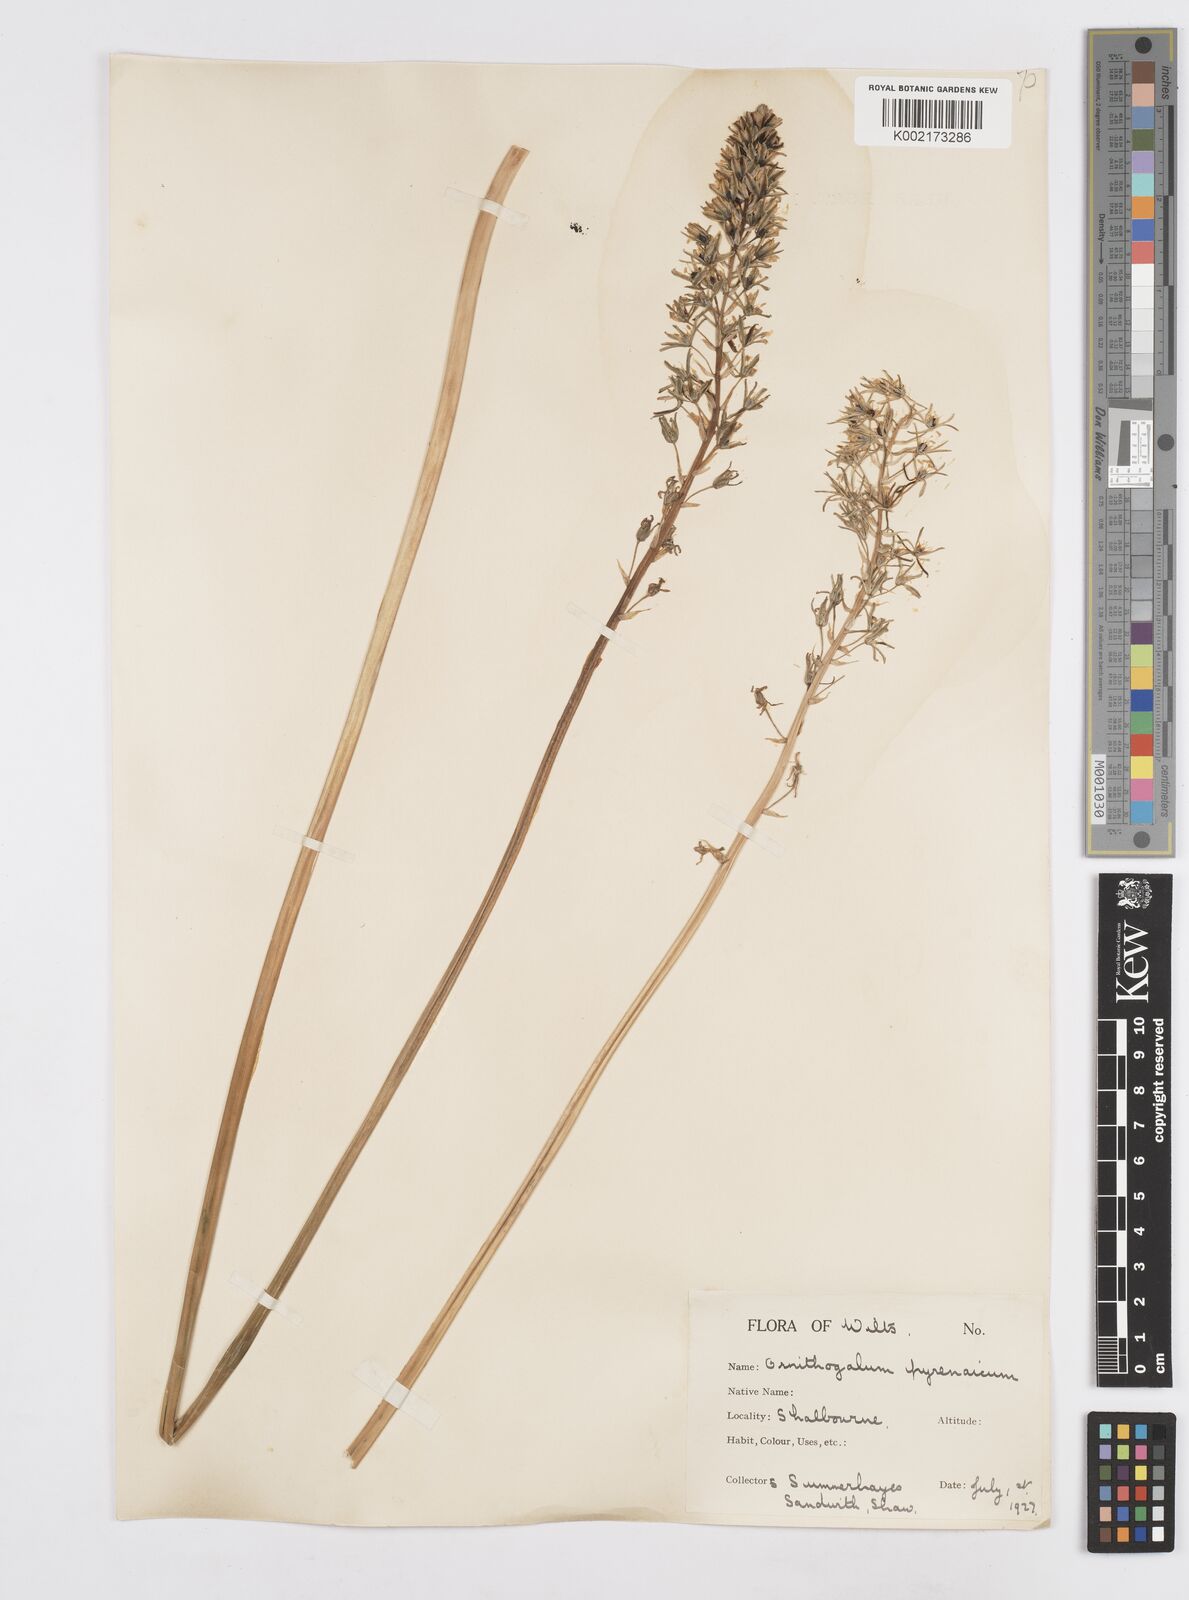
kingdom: Plantae
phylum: Tracheophyta
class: Liliopsida
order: Asparagales
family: Asparagaceae
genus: Ornithogalum
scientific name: Ornithogalum pyrenaicum
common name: Spiked star-of-bethlehem
